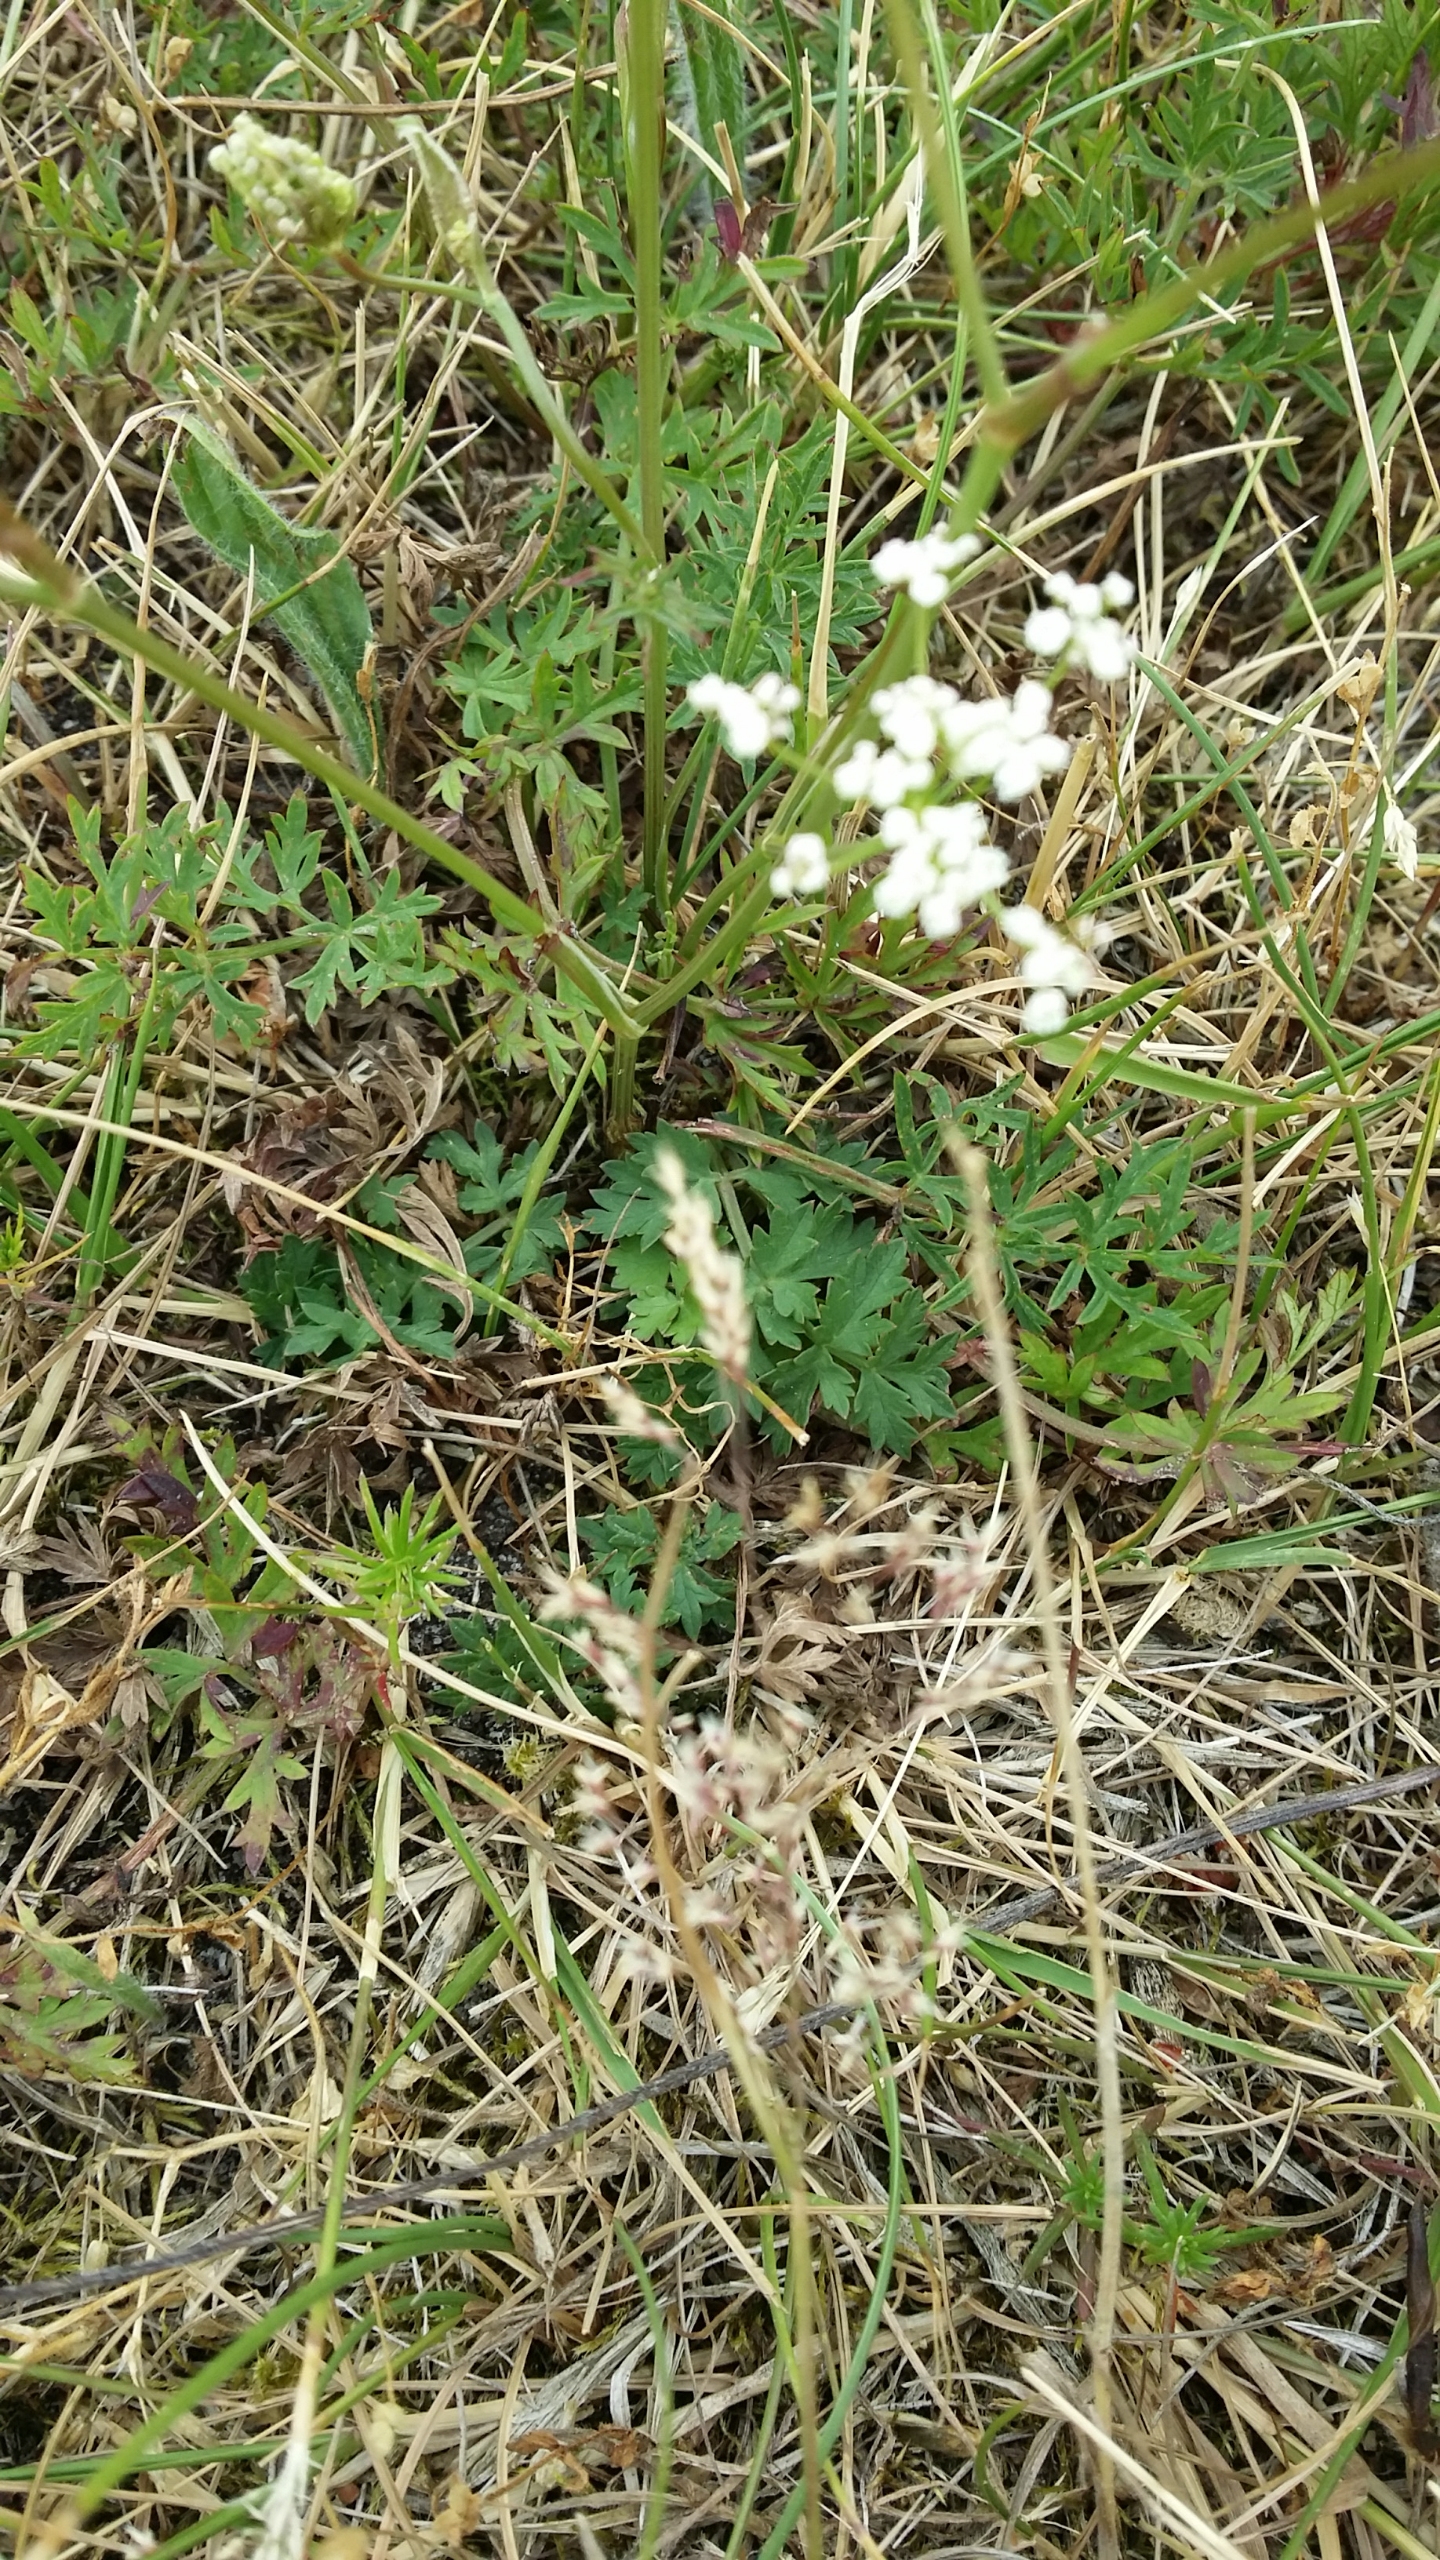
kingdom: Plantae
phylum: Tracheophyta
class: Magnoliopsida
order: Apiales
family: Apiaceae
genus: Pimpinella
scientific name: Pimpinella saxifraga
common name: Almindelig pimpinelle
